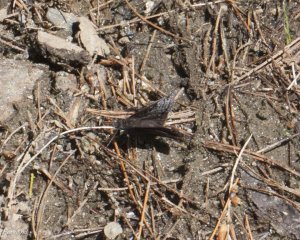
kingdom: Animalia
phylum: Arthropoda
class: Insecta
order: Lepidoptera
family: Hesperiidae
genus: Erynnis
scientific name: Erynnis icelus
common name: Dreamy Duskywing
